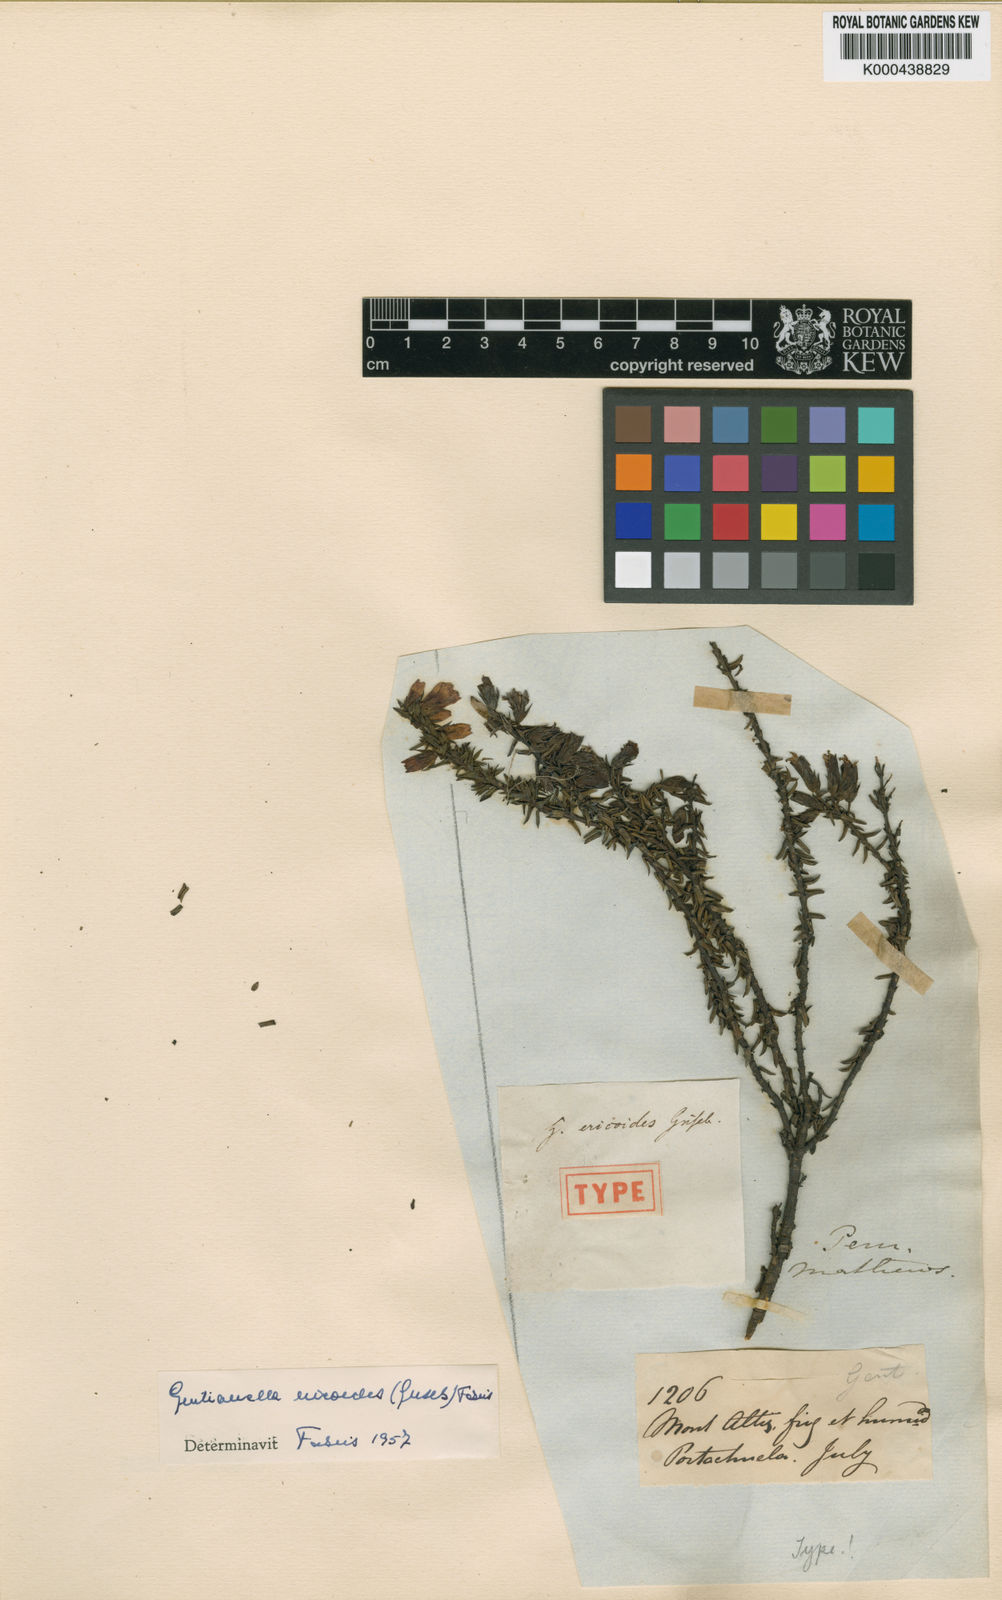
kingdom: Plantae
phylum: Tracheophyta
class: Magnoliopsida
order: Gentianales
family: Gentianaceae
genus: Gentianella
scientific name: Gentianella ericoides
